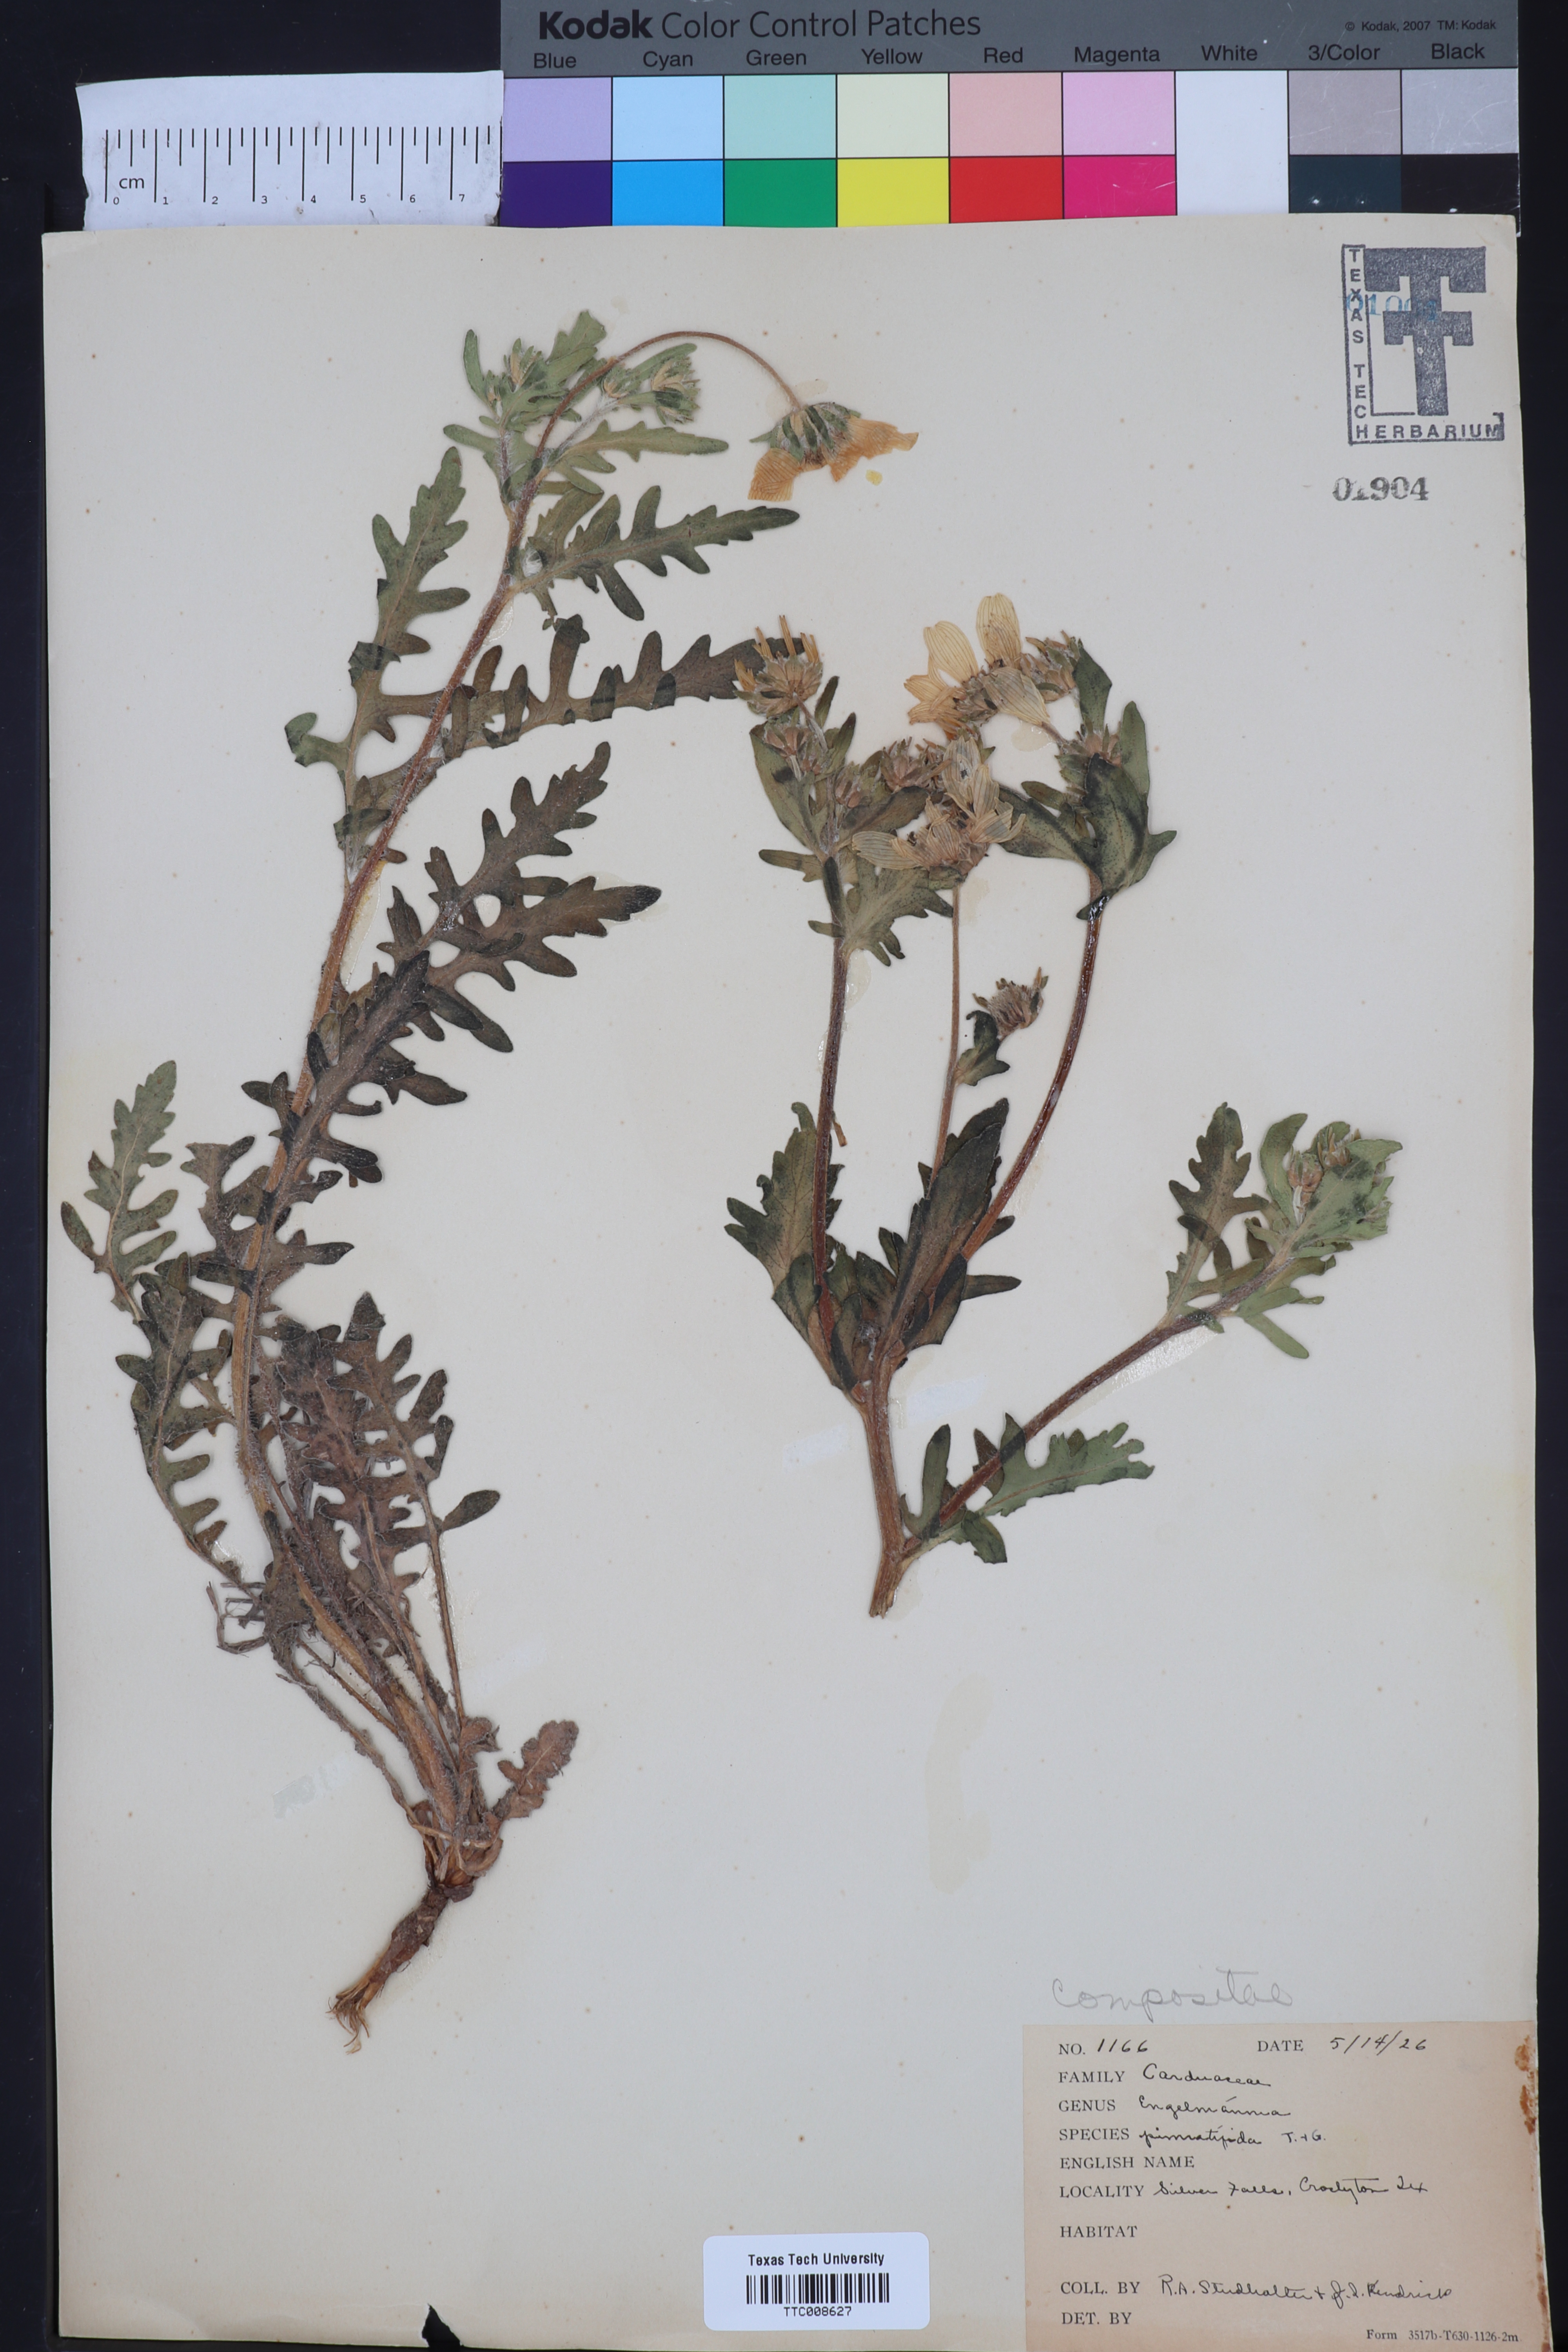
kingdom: Plantae
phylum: Tracheophyta
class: Magnoliopsida
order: Asterales
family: Asteraceae
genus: Engelmannia
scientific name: Engelmannia peristenia
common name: Engelmann's daisy
